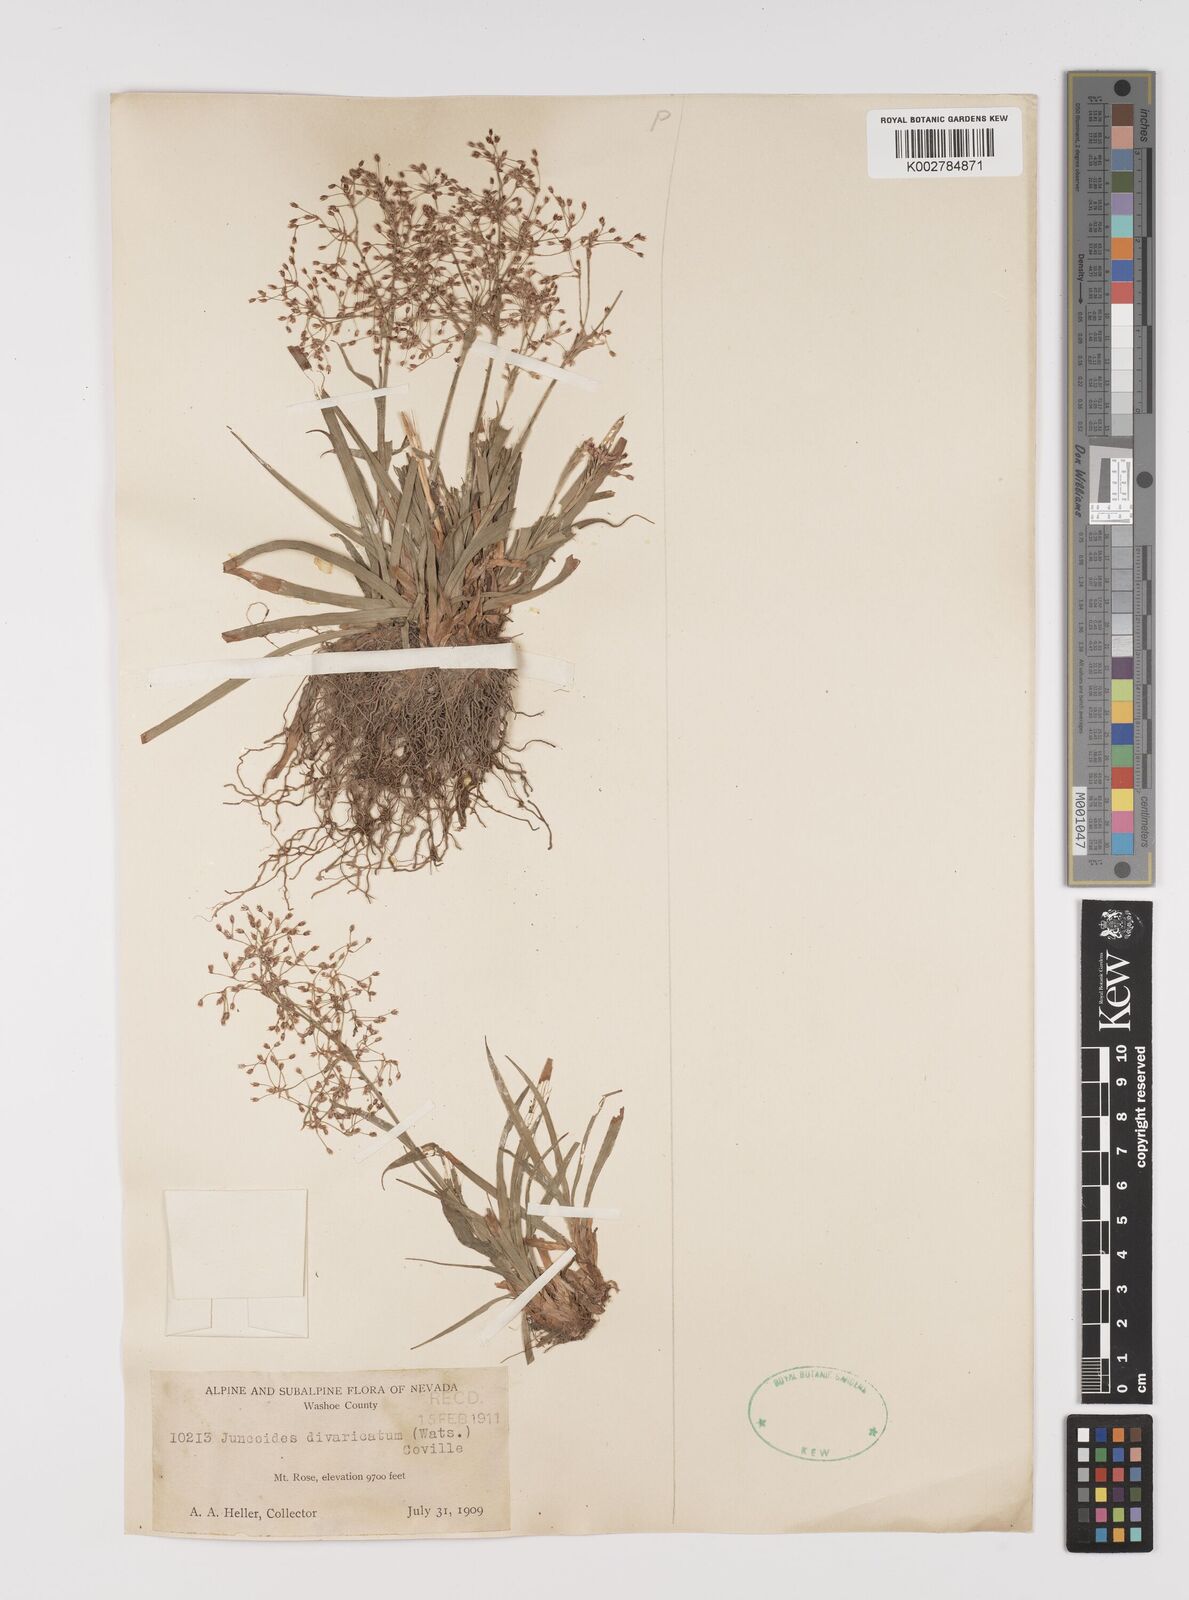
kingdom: Plantae
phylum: Tracheophyta
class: Liliopsida
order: Poales
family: Juncaceae
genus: Luzula
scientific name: Luzula divaricata
